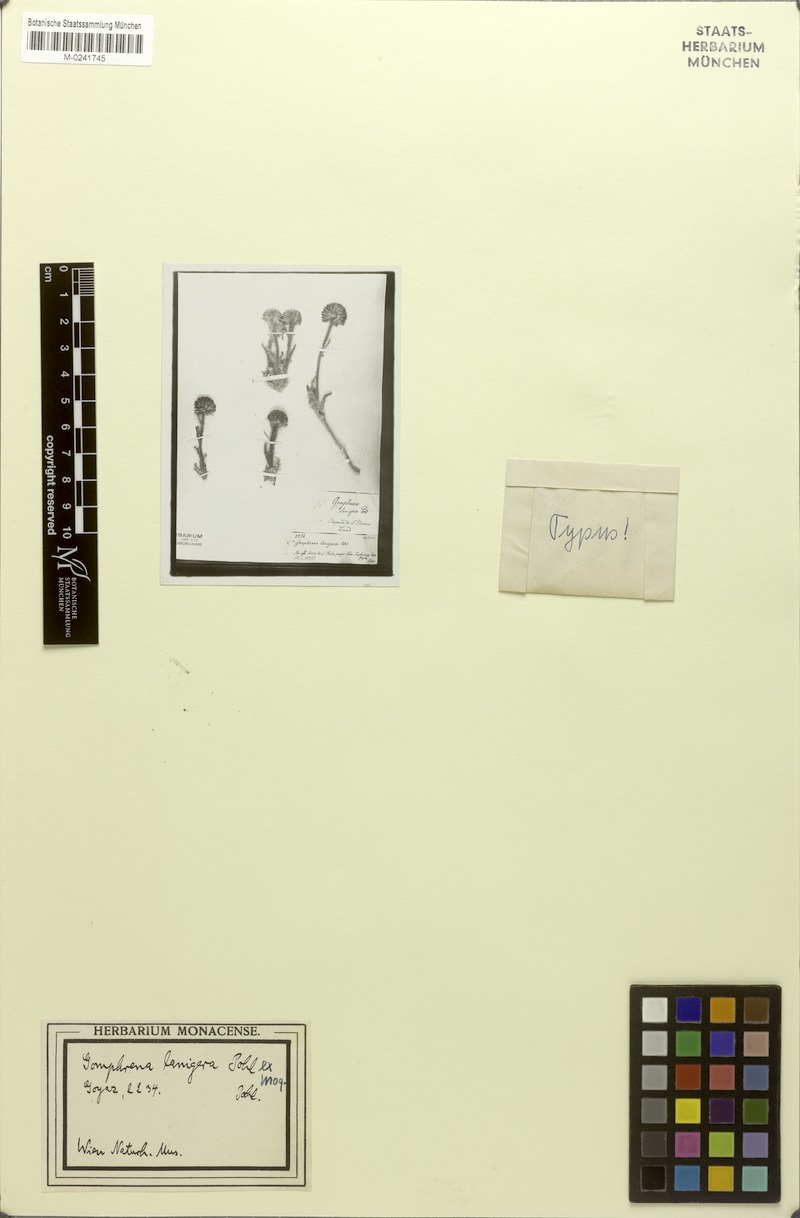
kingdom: Plantae
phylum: Tracheophyta
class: Magnoliopsida
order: Caryophyllales
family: Amaranthaceae
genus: Gomphrena
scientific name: Gomphrena lanigera
